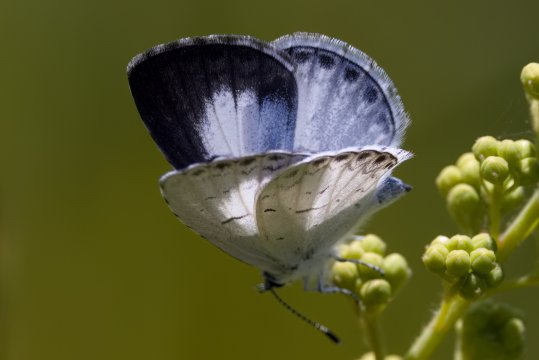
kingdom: Animalia
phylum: Arthropoda
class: Insecta
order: Lepidoptera
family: Lycaenidae
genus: Celastrina
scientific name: Celastrina lucia
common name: Northern Spring Azure
